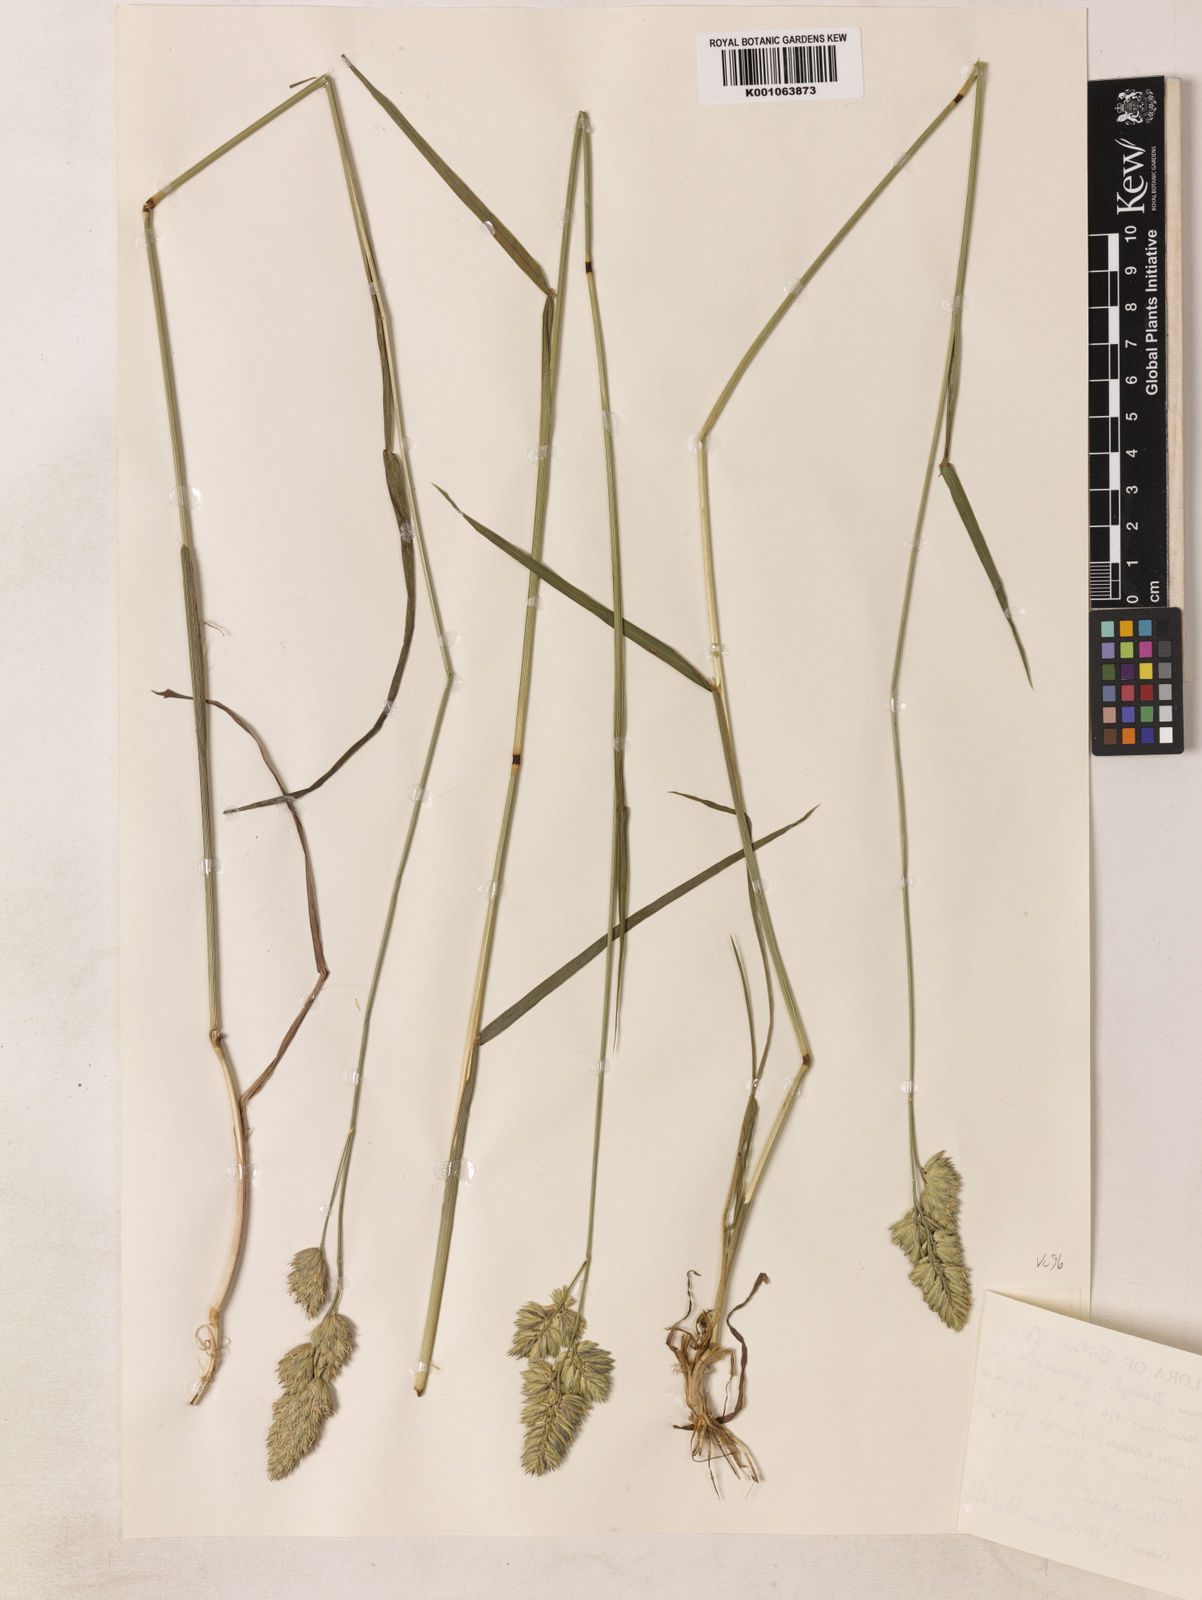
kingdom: Plantae
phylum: Tracheophyta
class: Liliopsida
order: Poales
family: Poaceae
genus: Dactylis
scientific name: Dactylis glomerata
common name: Orchardgrass
